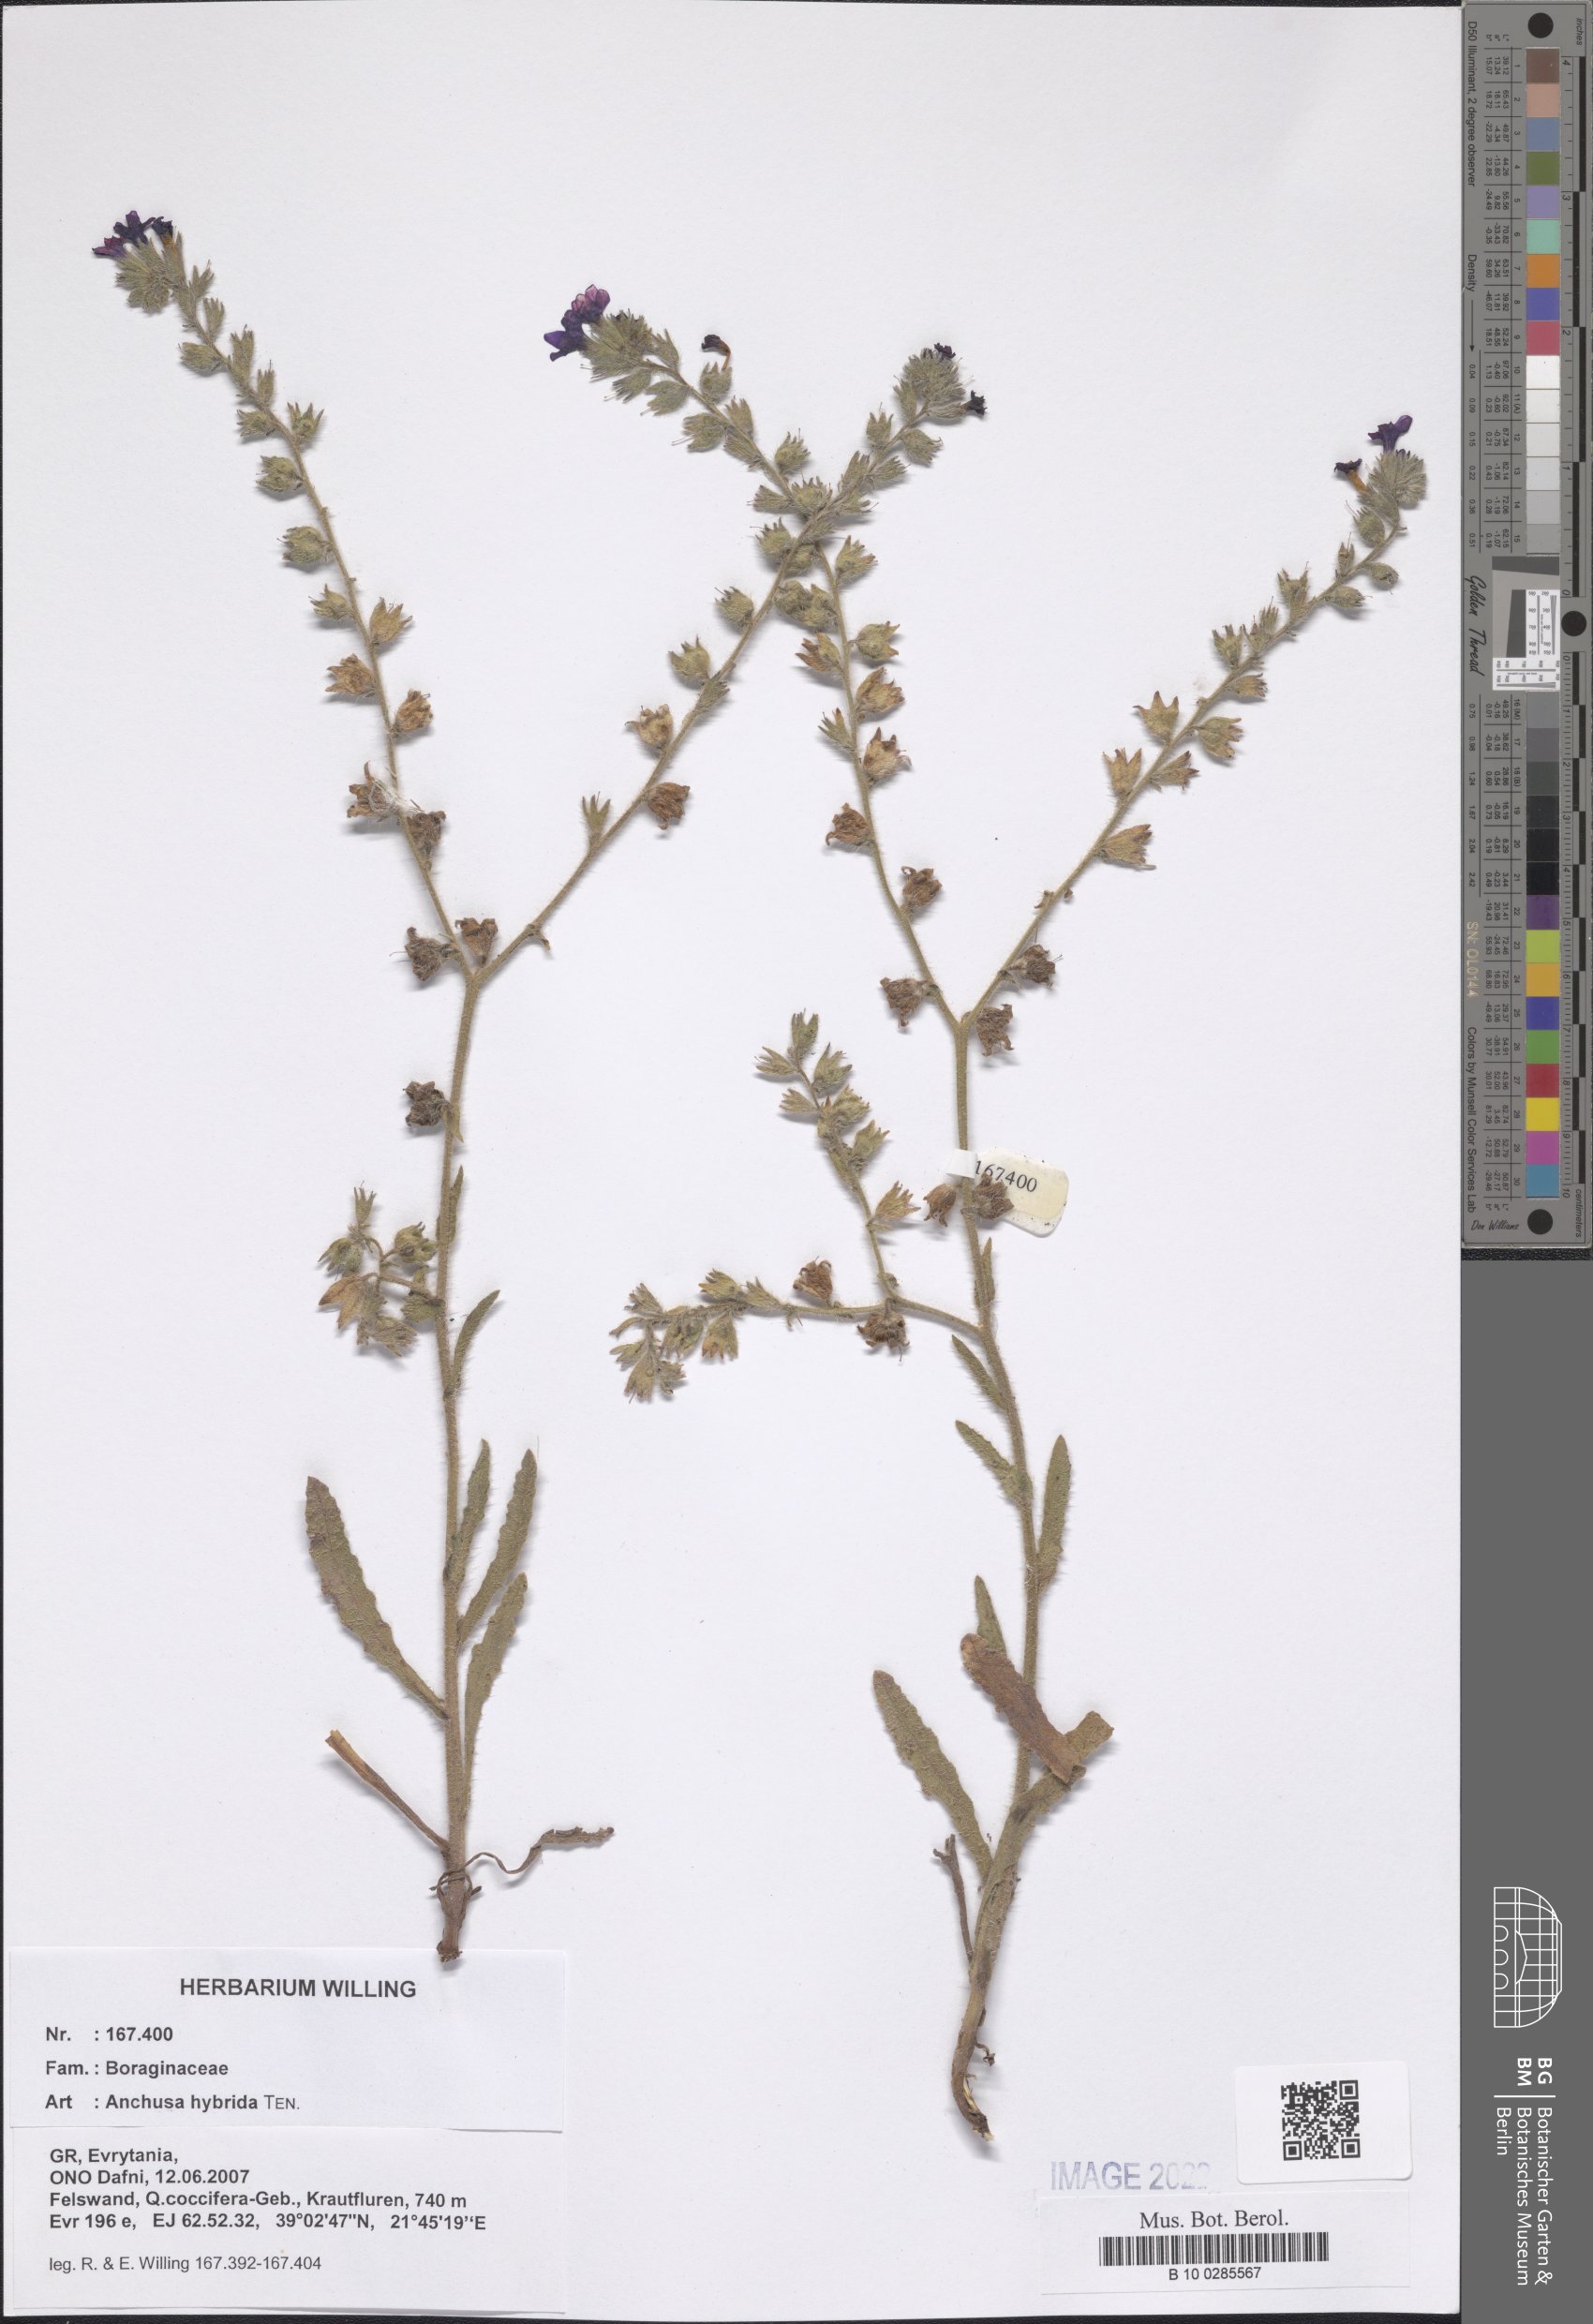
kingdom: Plantae
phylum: Tracheophyta
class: Magnoliopsida
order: Boraginales
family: Boraginaceae
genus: Anchusa
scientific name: Anchusa hybrida
